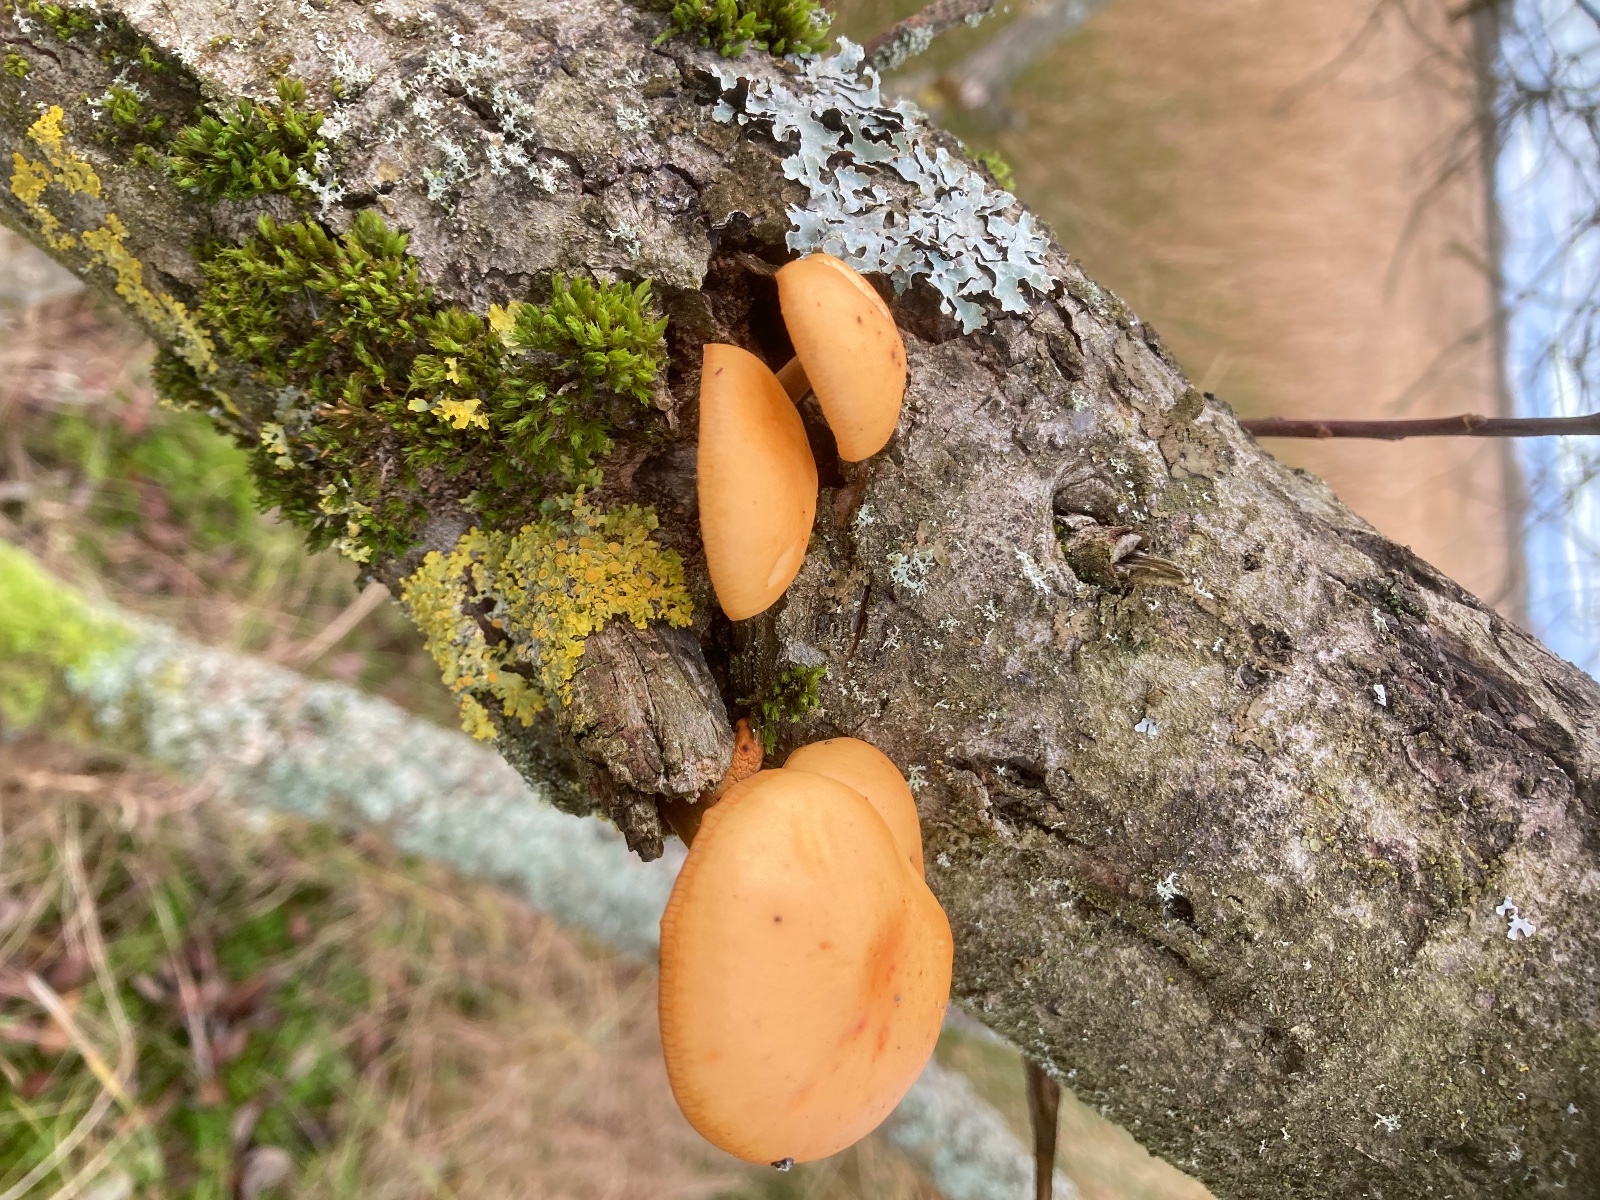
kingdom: Fungi
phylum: Basidiomycota
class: Agaricomycetes
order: Agaricales
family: Physalacriaceae
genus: Flammulina
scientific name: Flammulina
